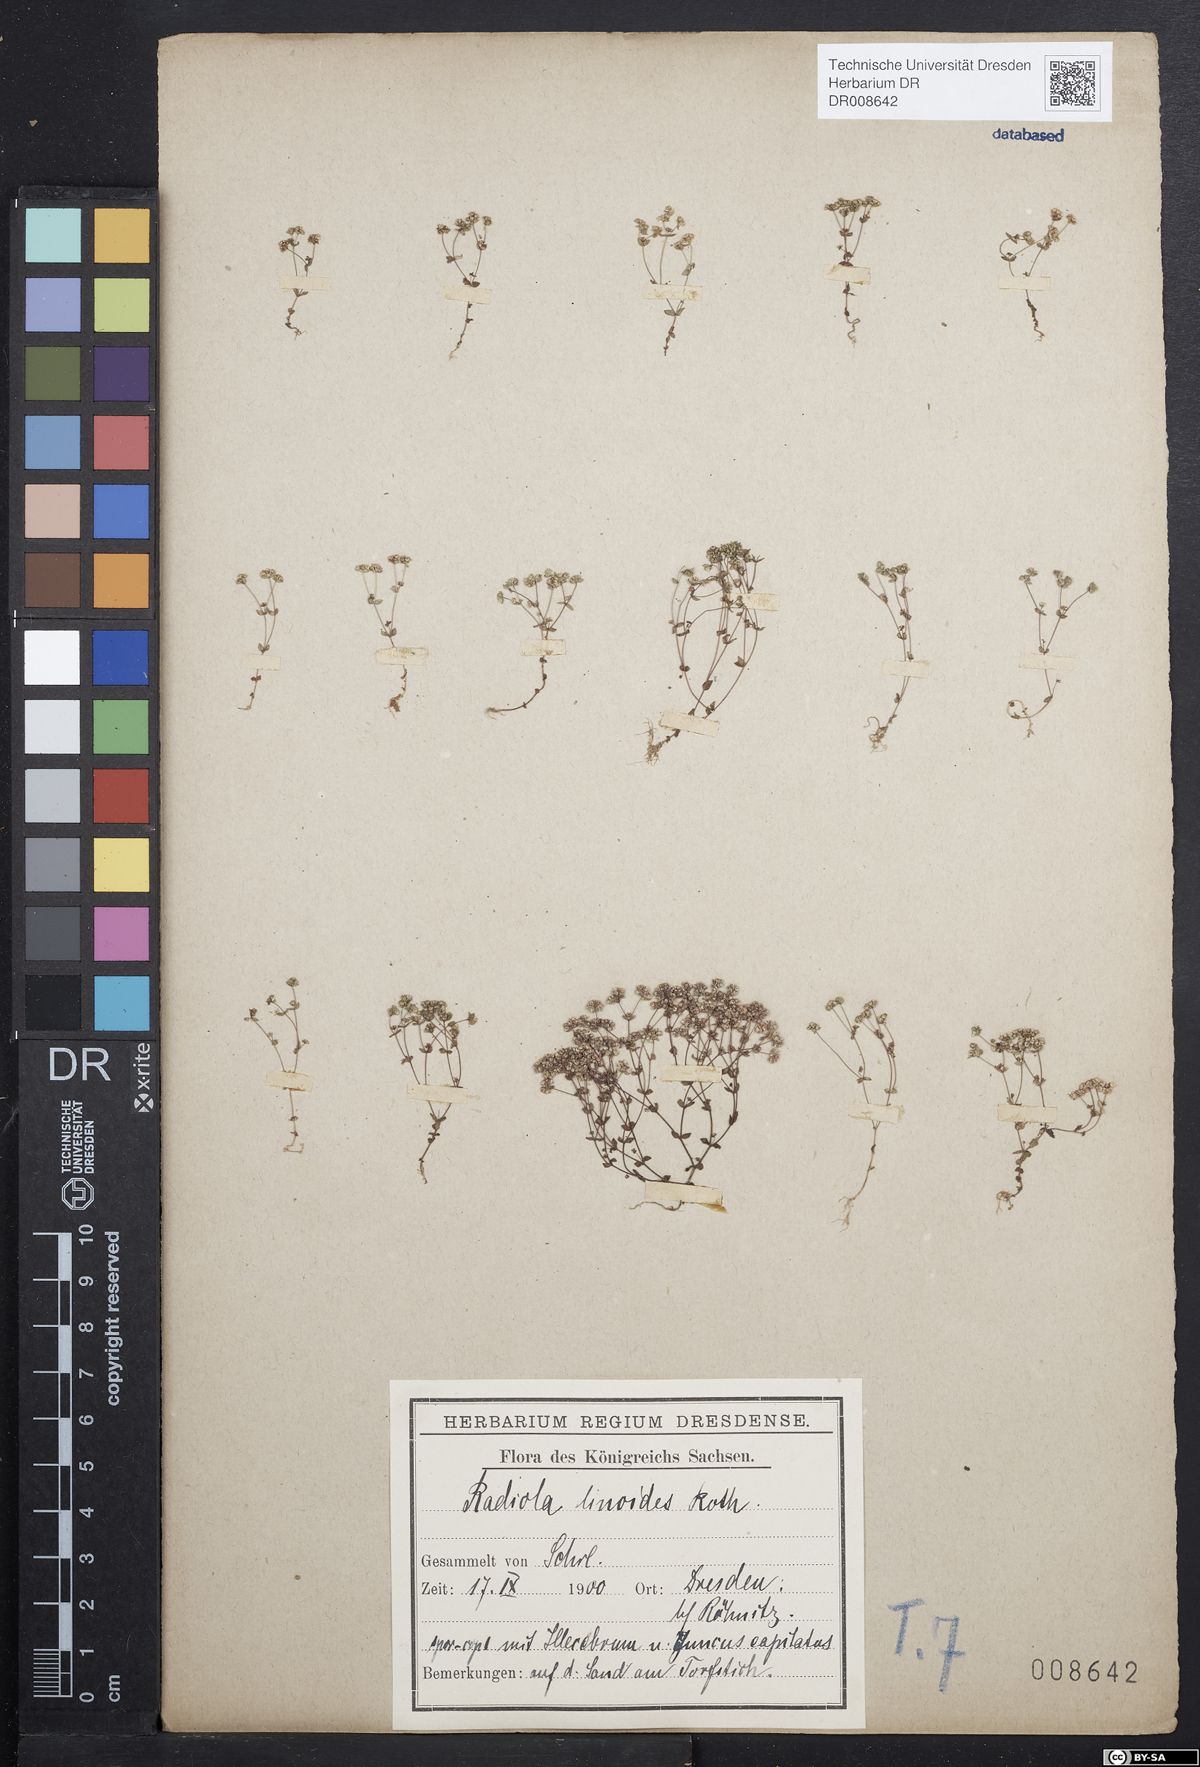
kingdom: Plantae
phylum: Tracheophyta
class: Magnoliopsida
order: Malpighiales
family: Linaceae
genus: Radiola
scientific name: Radiola linoides
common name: Allseed
